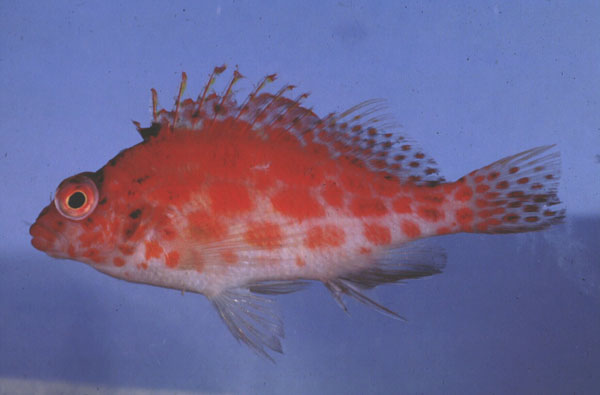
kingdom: Animalia
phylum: Chordata
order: Perciformes
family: Cirrhitidae
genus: Cirrhitichthys
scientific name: Cirrhitichthys oxycephalus
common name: Spotted hawkfish
